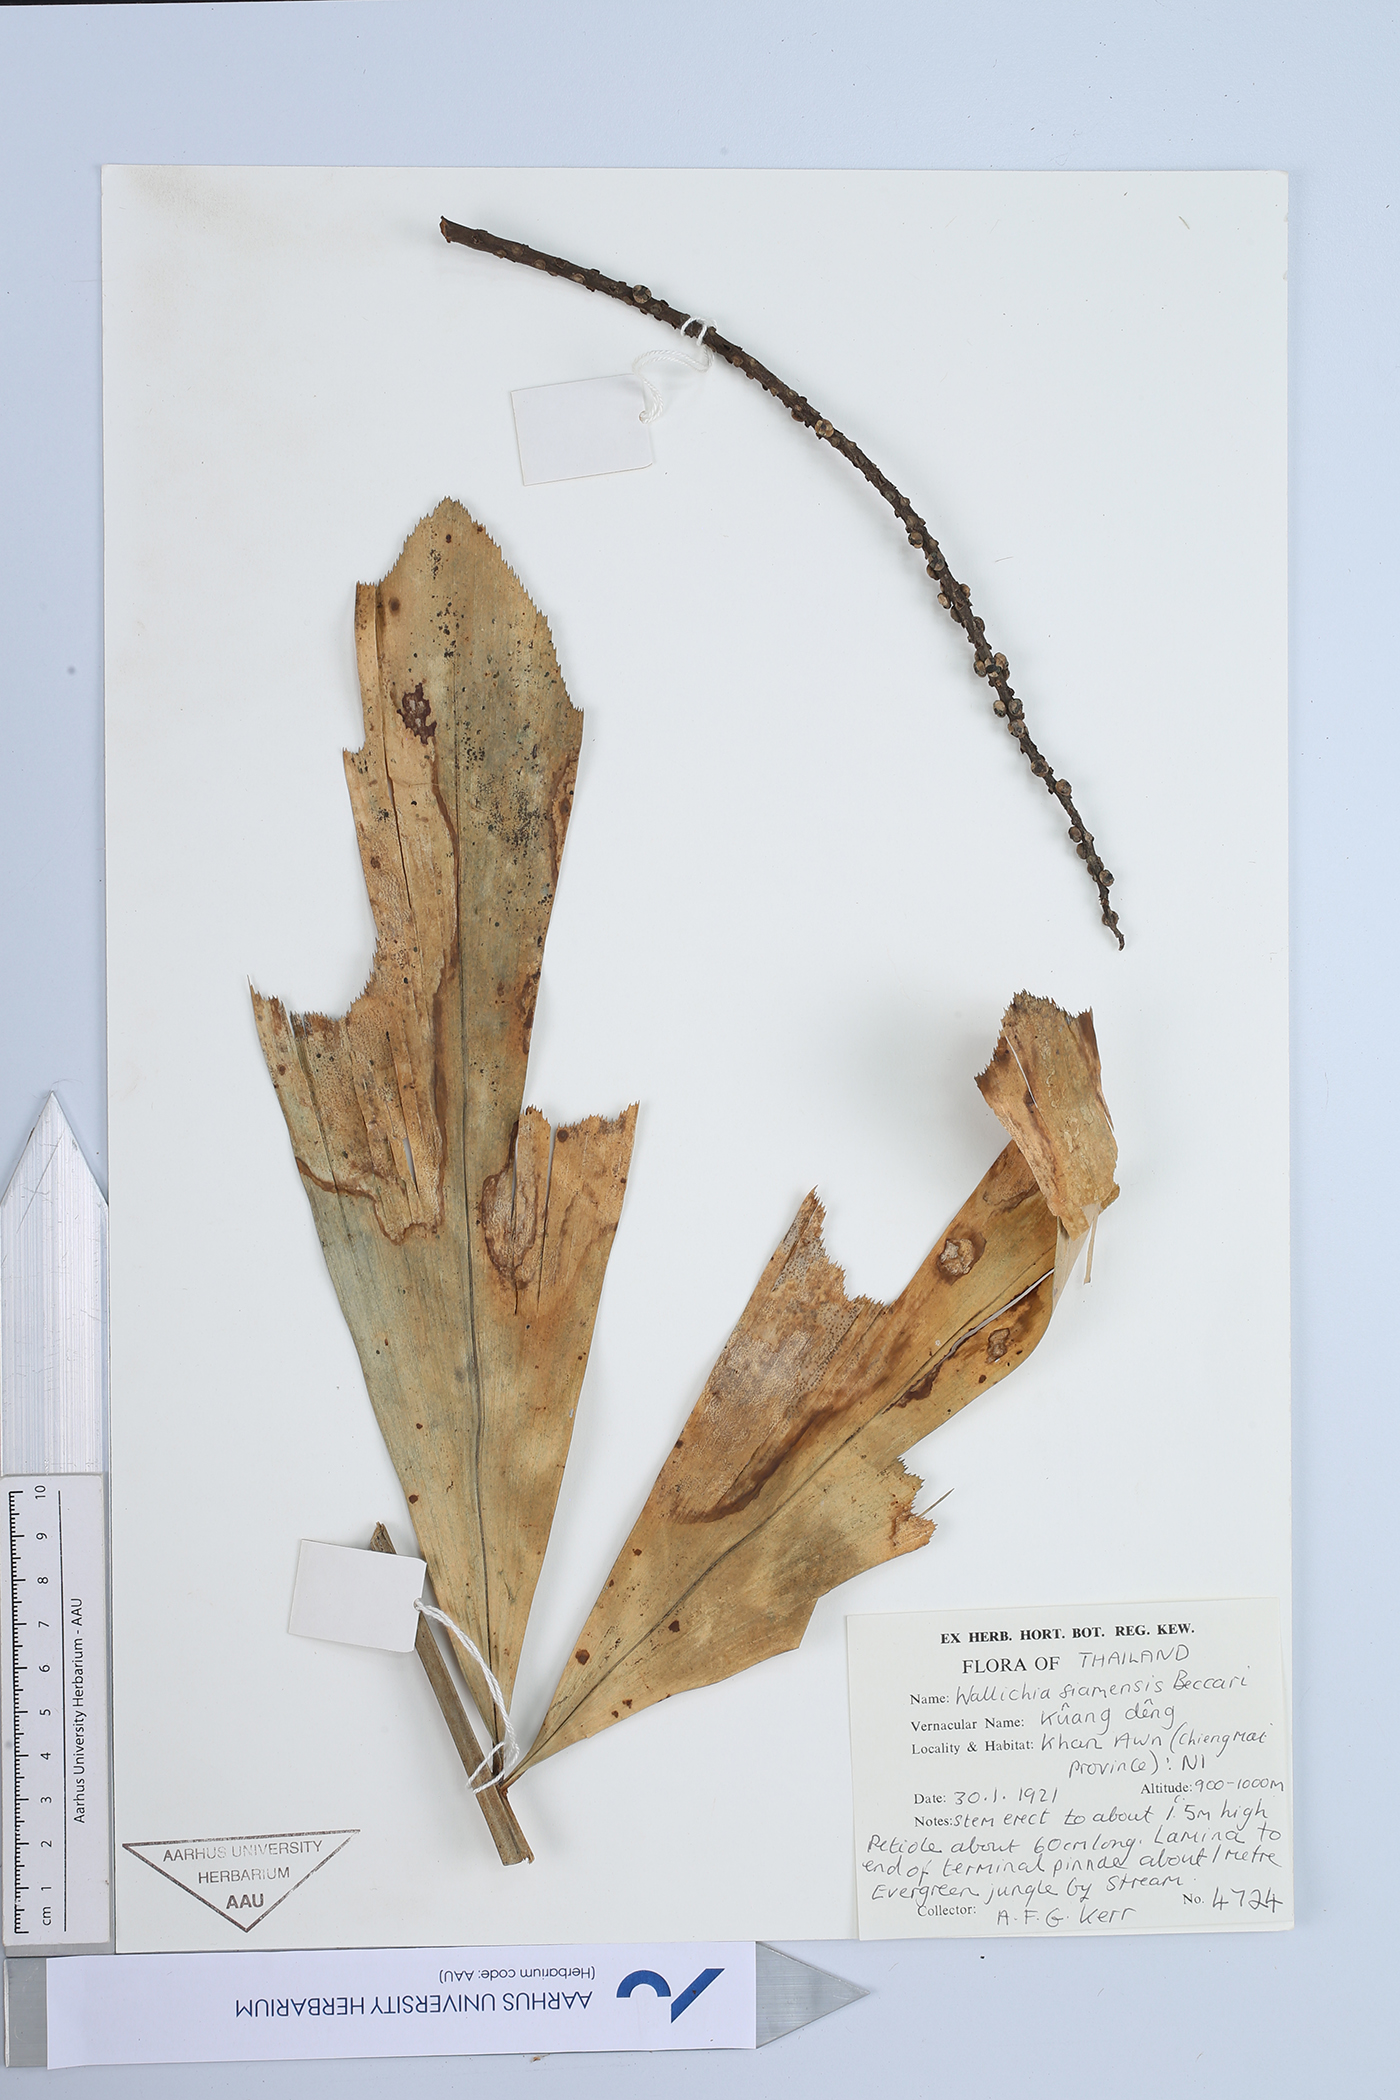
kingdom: Plantae
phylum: Tracheophyta
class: Liliopsida
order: Arecales
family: Arecaceae
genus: Wallichia
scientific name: Wallichia caryotoides
